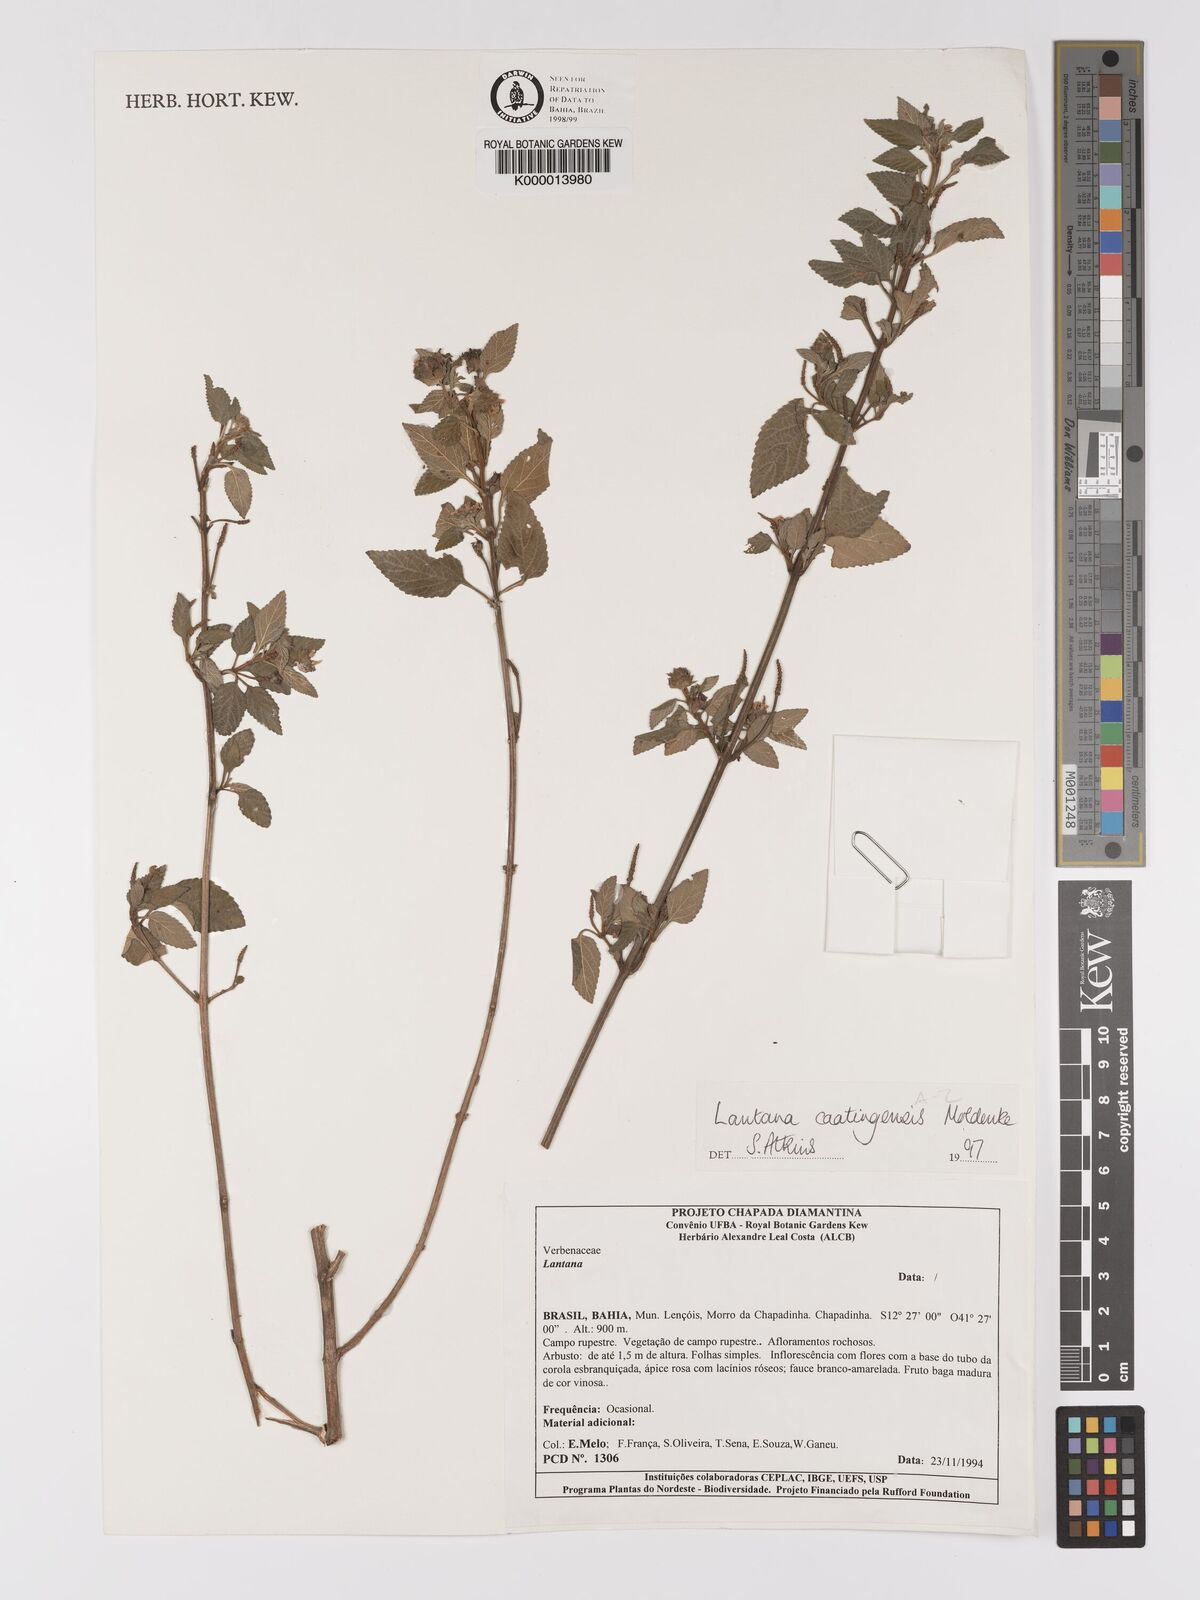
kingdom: Plantae
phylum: Tracheophyta
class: Magnoliopsida
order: Lamiales
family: Verbenaceae
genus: Lantana
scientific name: Lantana caatingensis
